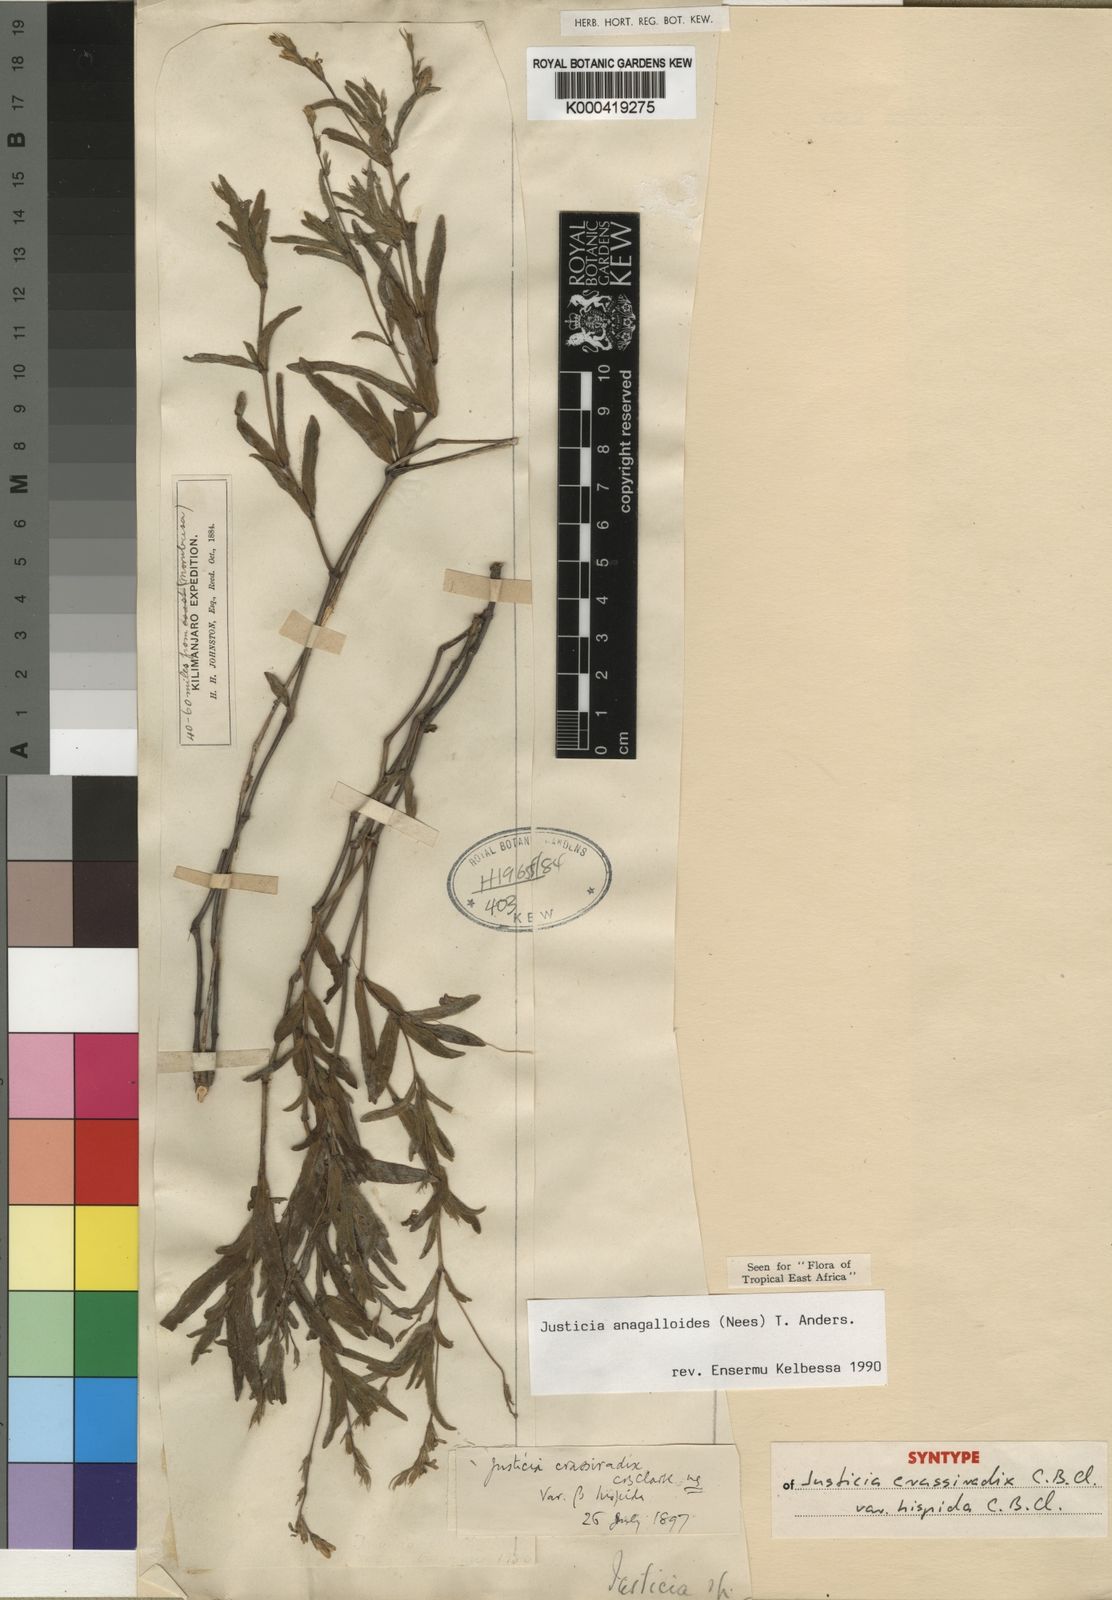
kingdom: Plantae
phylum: Tracheophyta
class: Magnoliopsida
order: Lamiales
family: Acanthaceae
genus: Justicia
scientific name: Justicia
